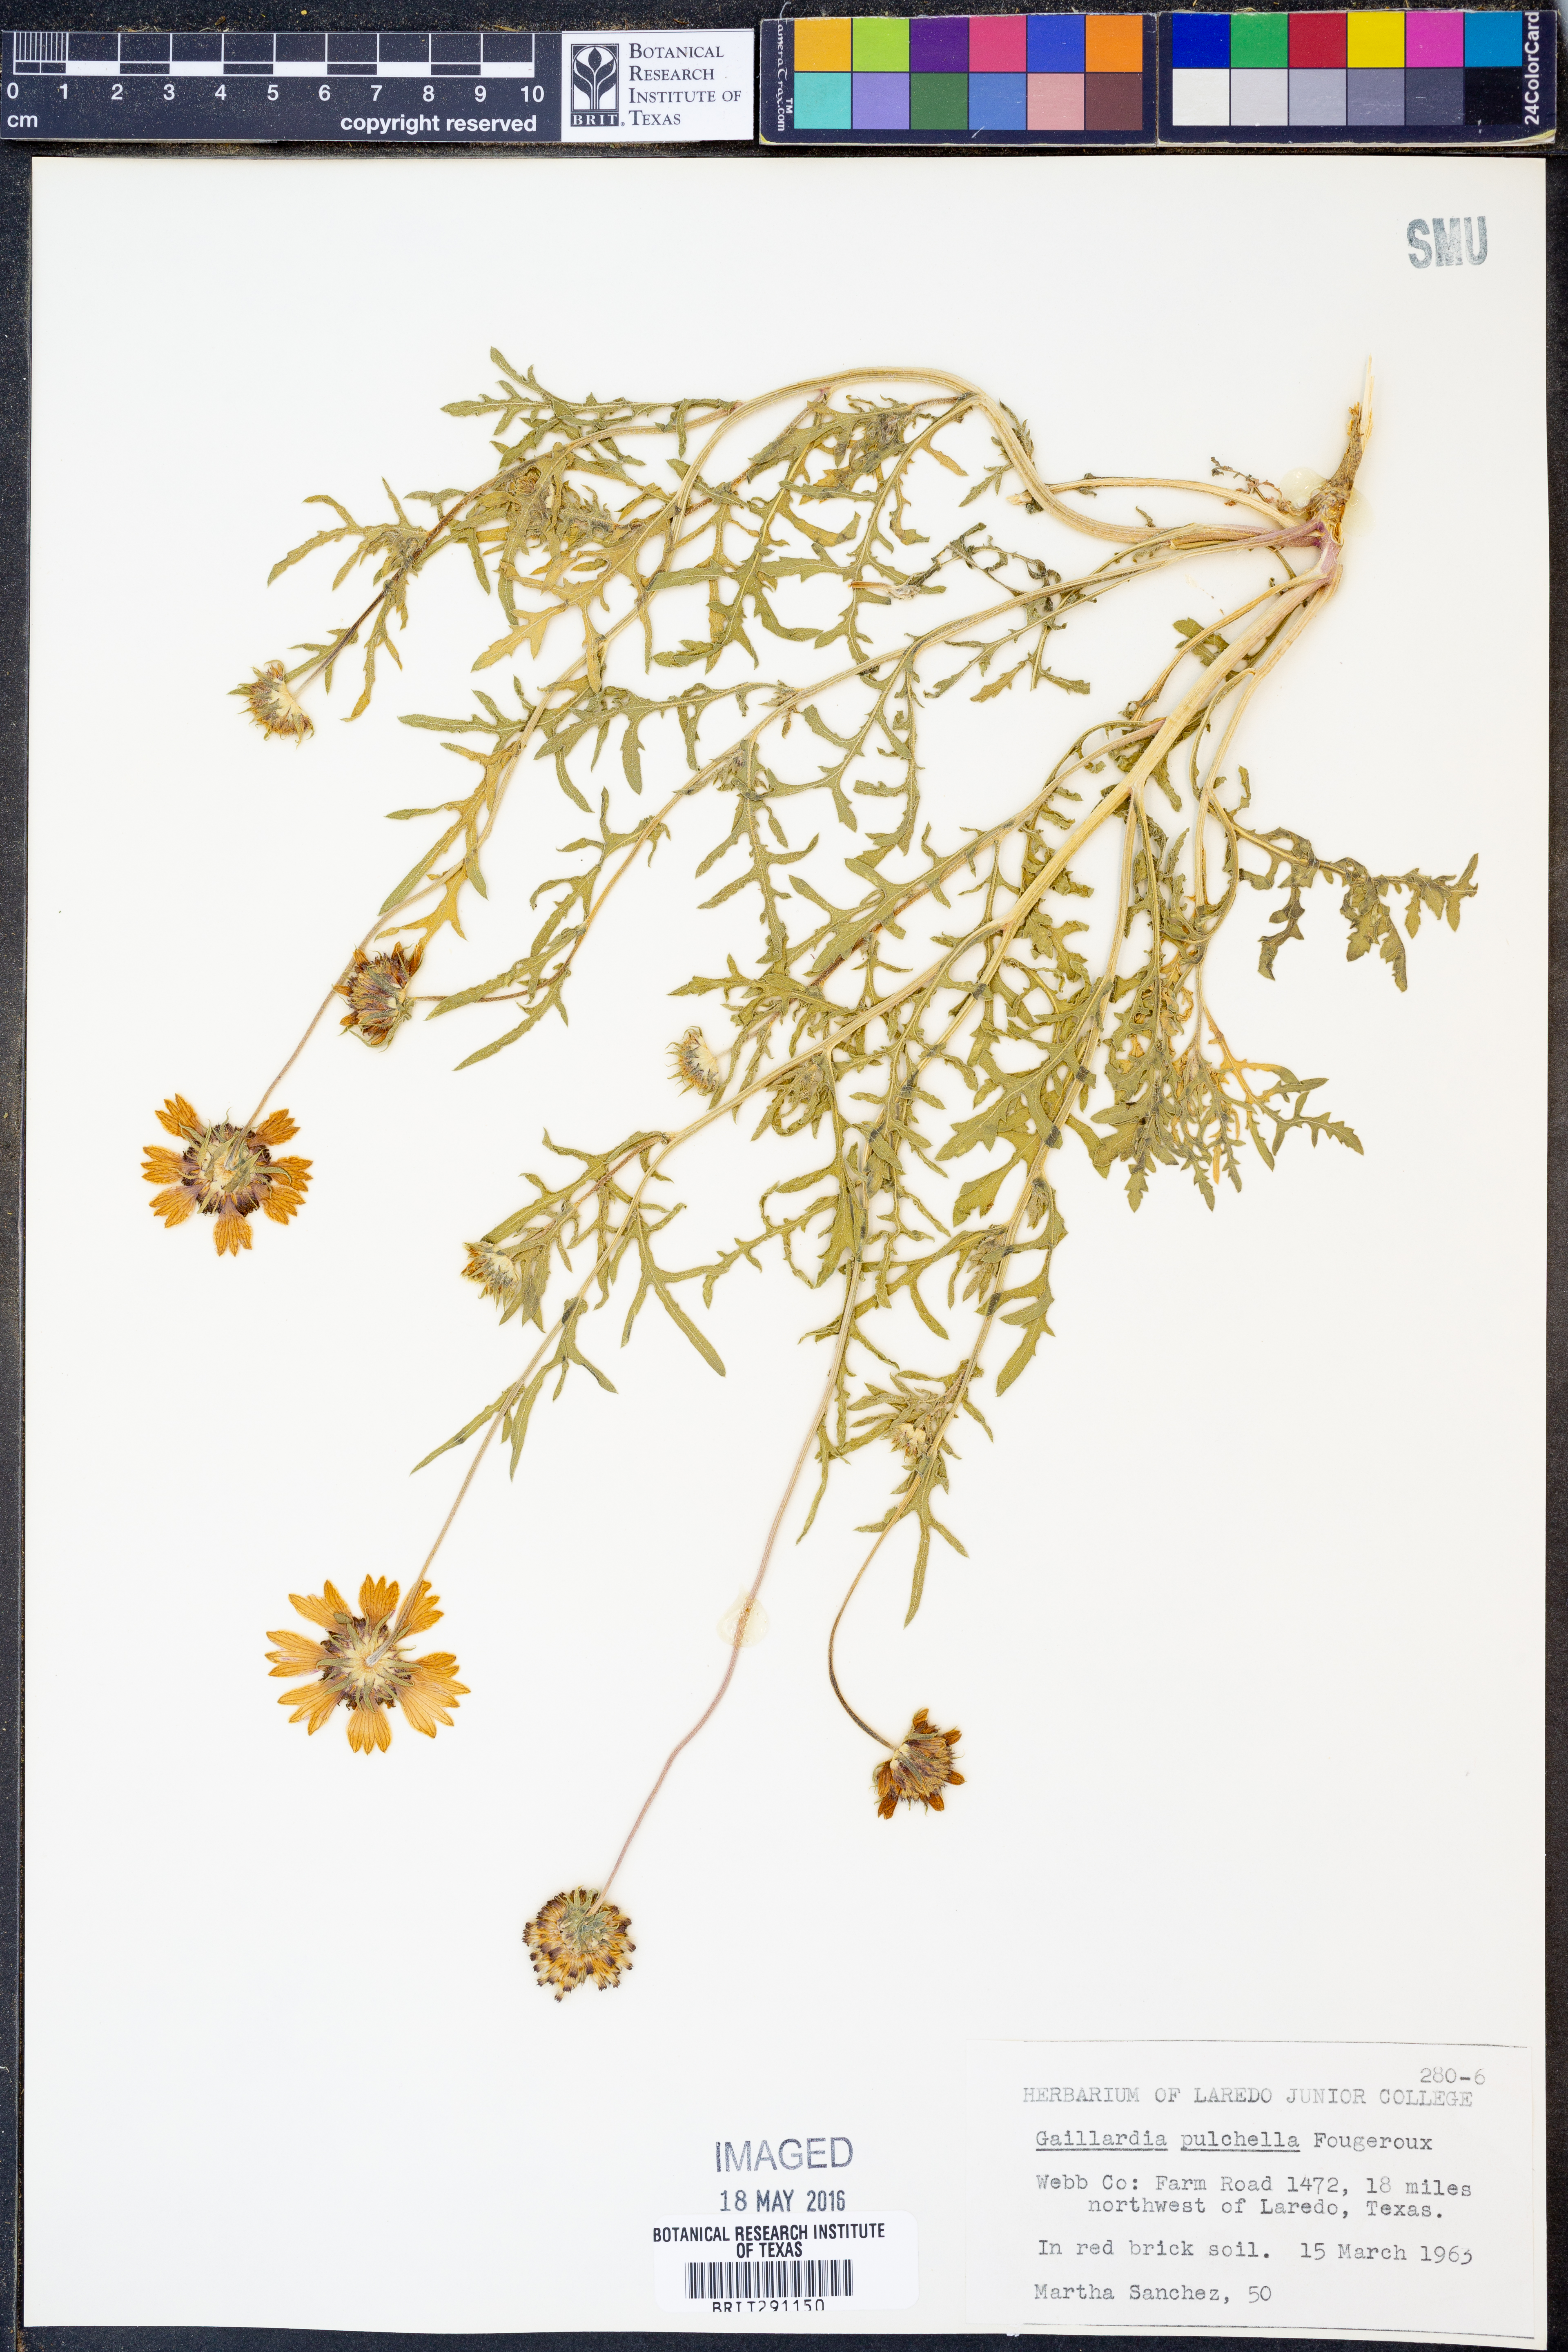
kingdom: Plantae
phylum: Tracheophyta
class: Magnoliopsida
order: Asterales
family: Asteraceae
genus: Gaillardia
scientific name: Gaillardia pulchella
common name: Firewheel
